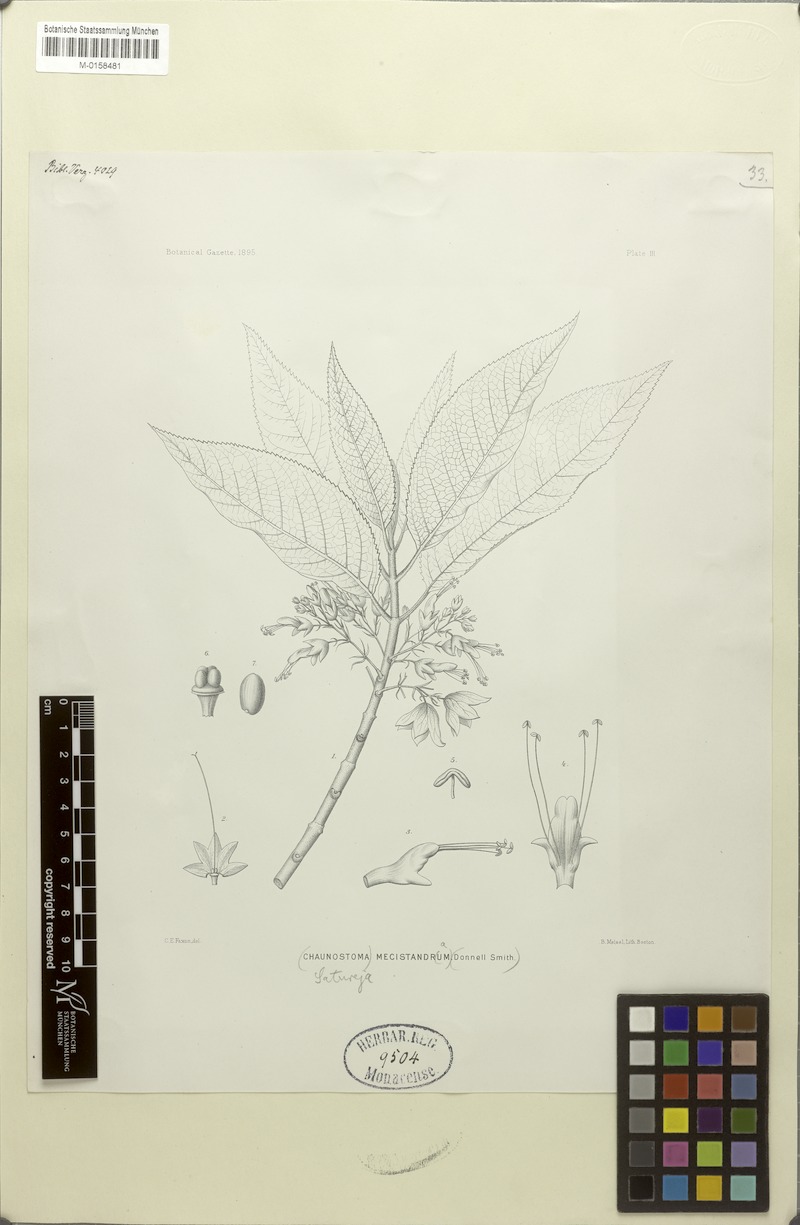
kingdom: Plantae
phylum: Tracheophyta
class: Magnoliopsida
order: Lamiales
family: Lamiaceae
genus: Lepechinia
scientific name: Lepechinia mecistandrum
